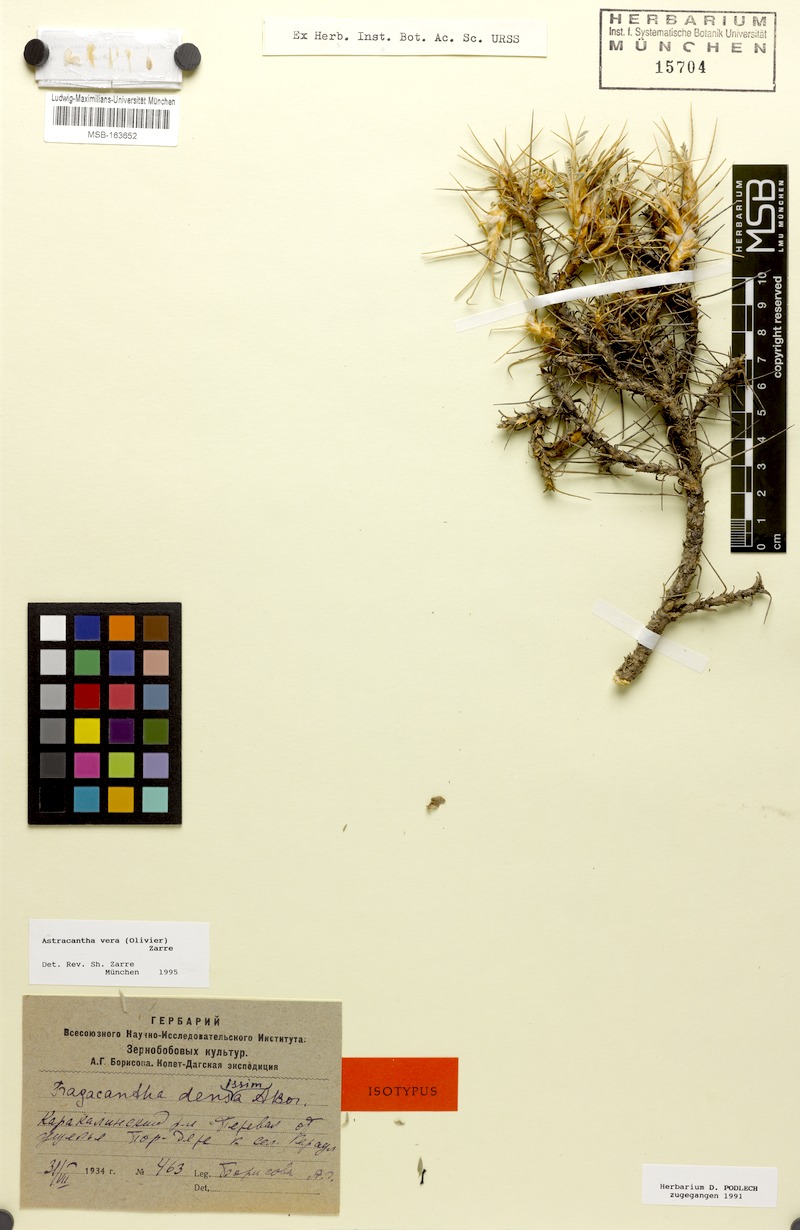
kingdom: Plantae
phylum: Tracheophyta
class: Magnoliopsida
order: Fabales
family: Fabaceae
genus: Astragalus
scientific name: Astragalus verus
